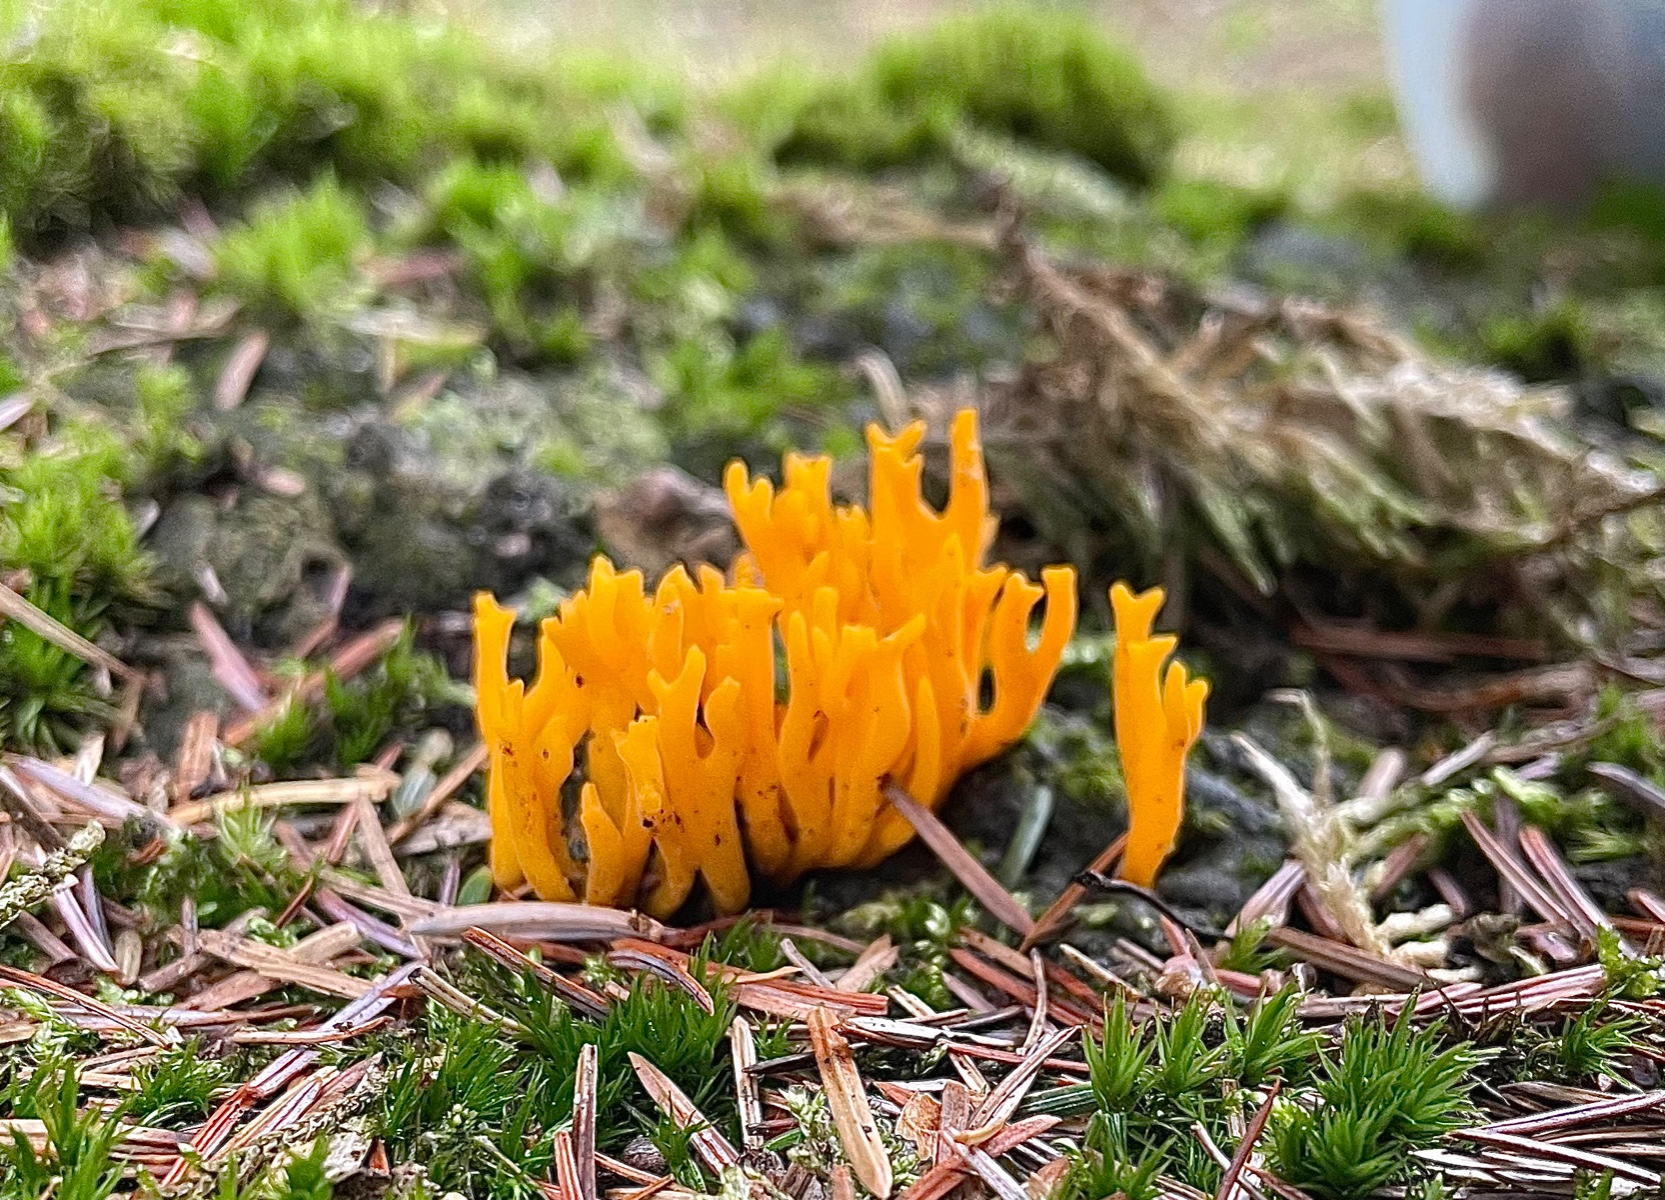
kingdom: Fungi
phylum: Basidiomycota
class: Dacrymycetes
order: Dacrymycetales
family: Dacrymycetaceae
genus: Calocera
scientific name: Calocera viscosa
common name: almindelig guldgaffel
